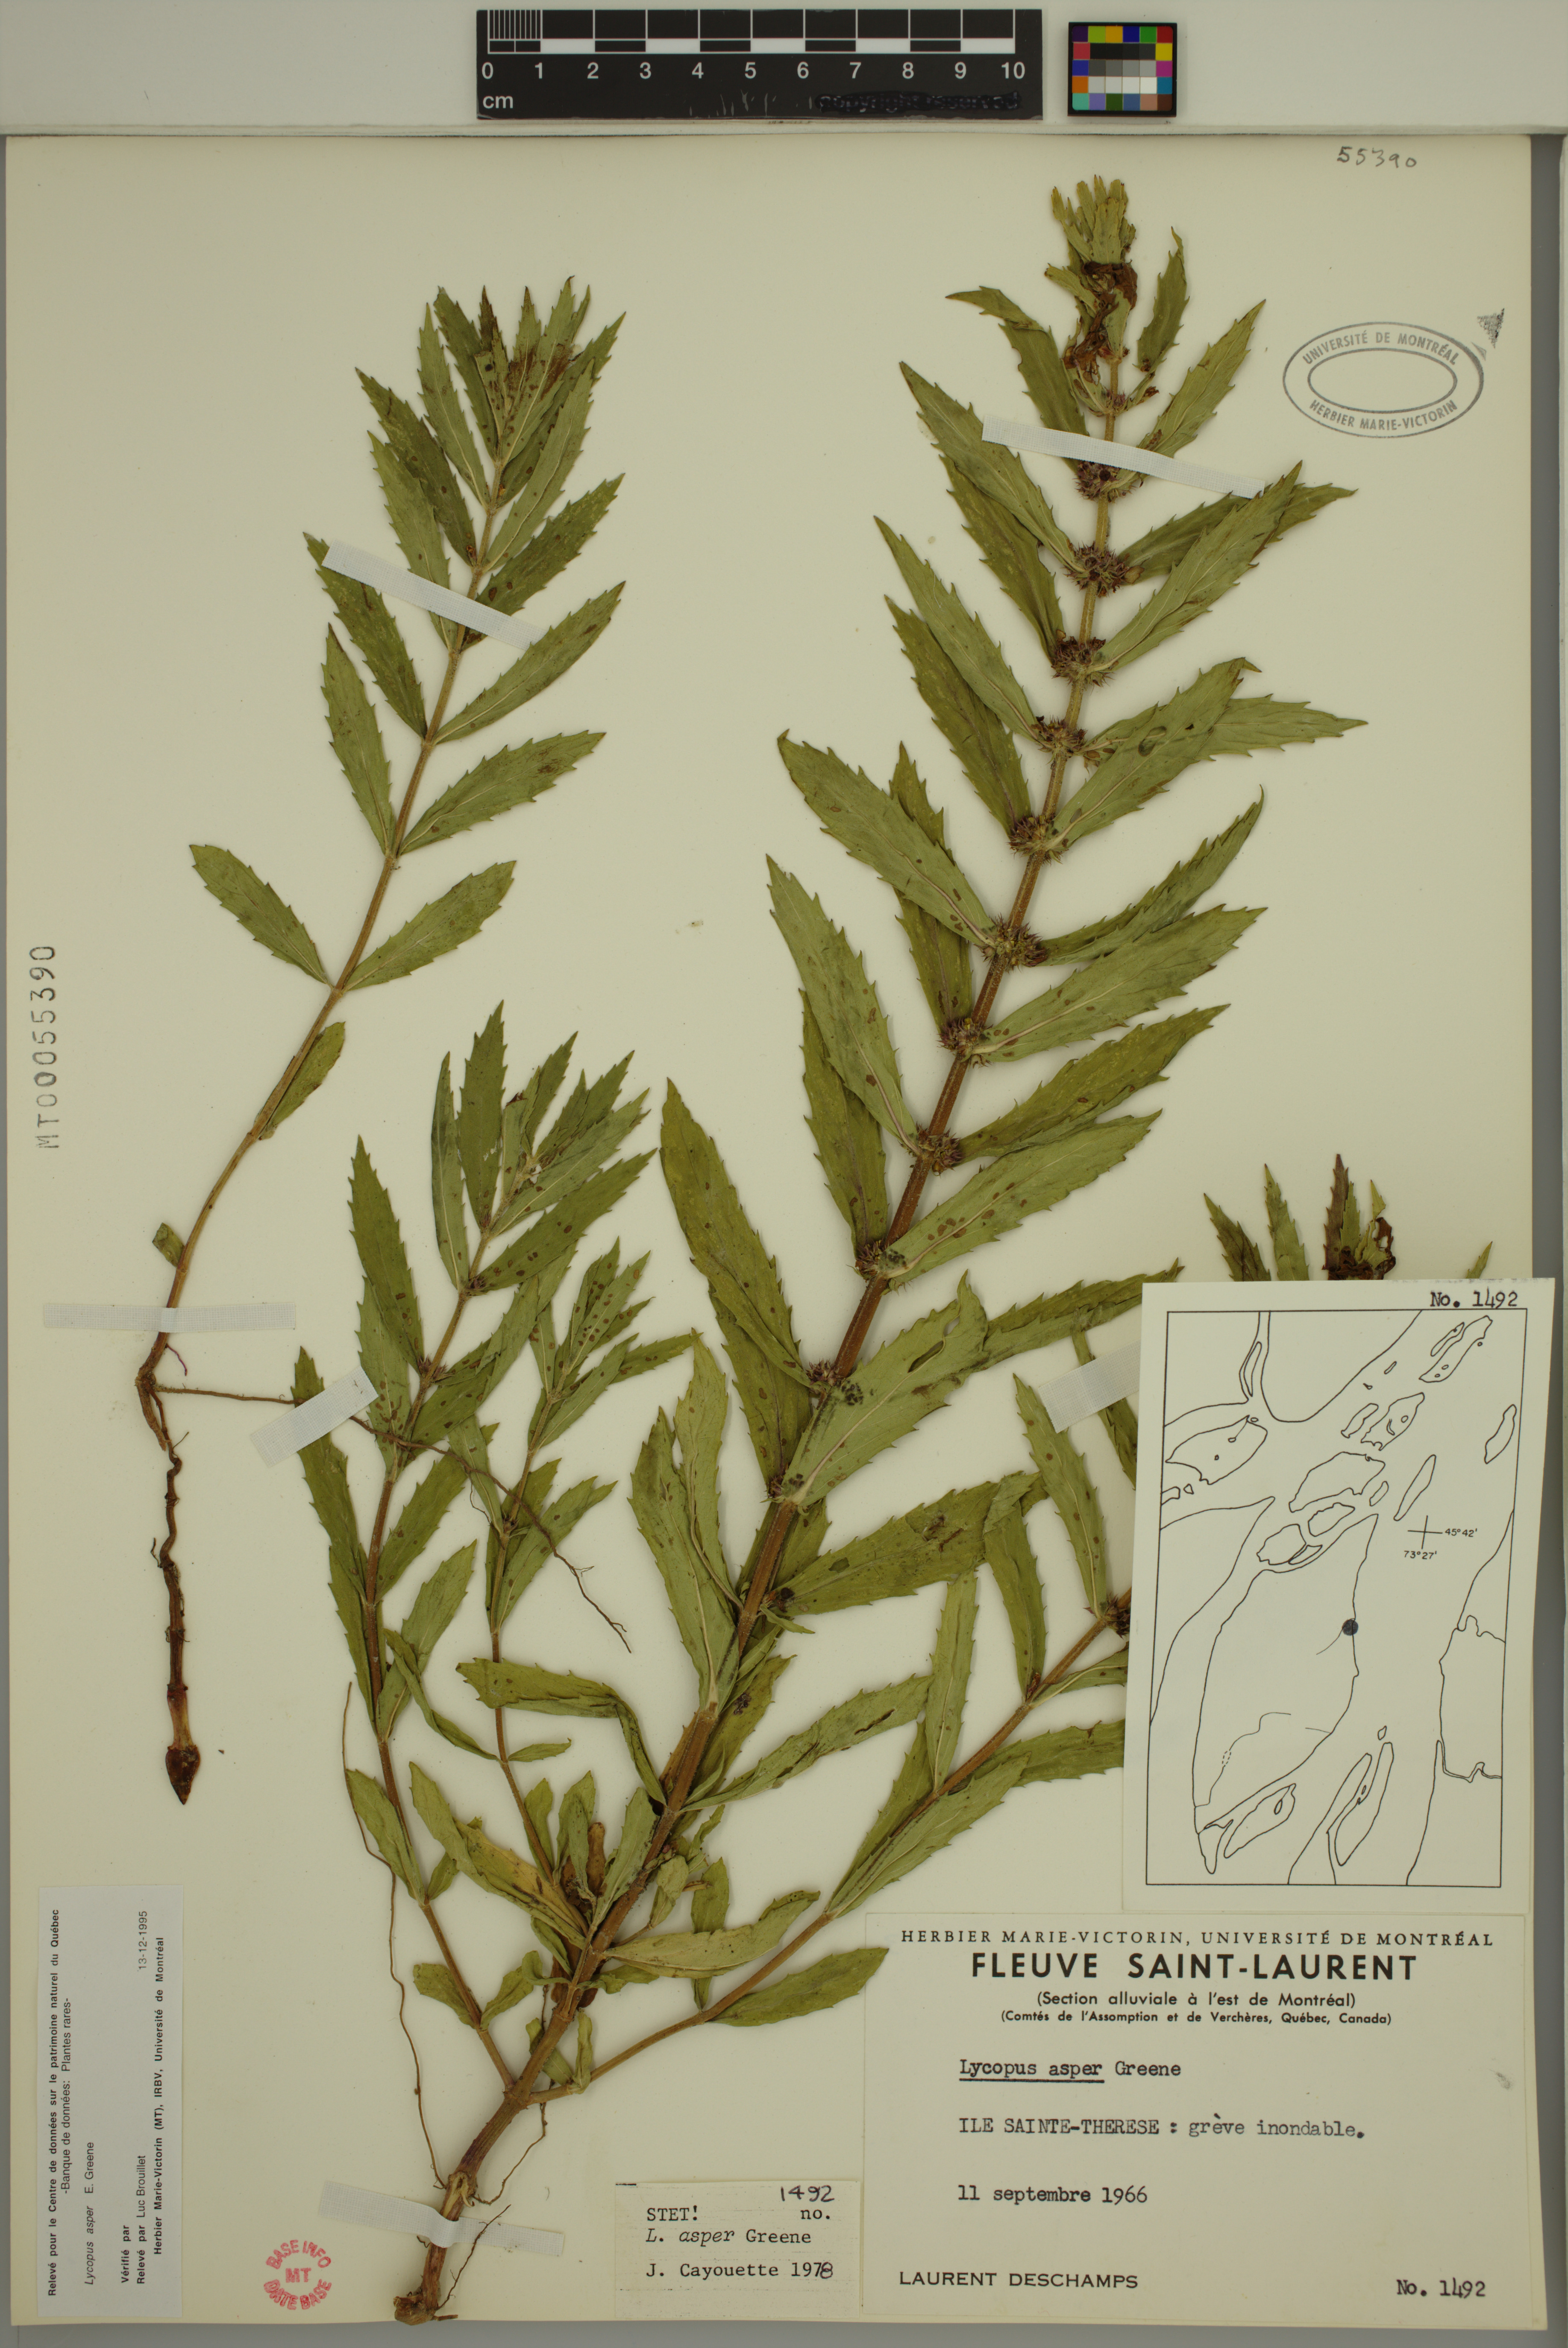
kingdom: Plantae
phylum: Tracheophyta
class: Magnoliopsida
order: Lamiales
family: Lamiaceae
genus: Lycopus
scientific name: Lycopus asper
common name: Rough water-horehound
